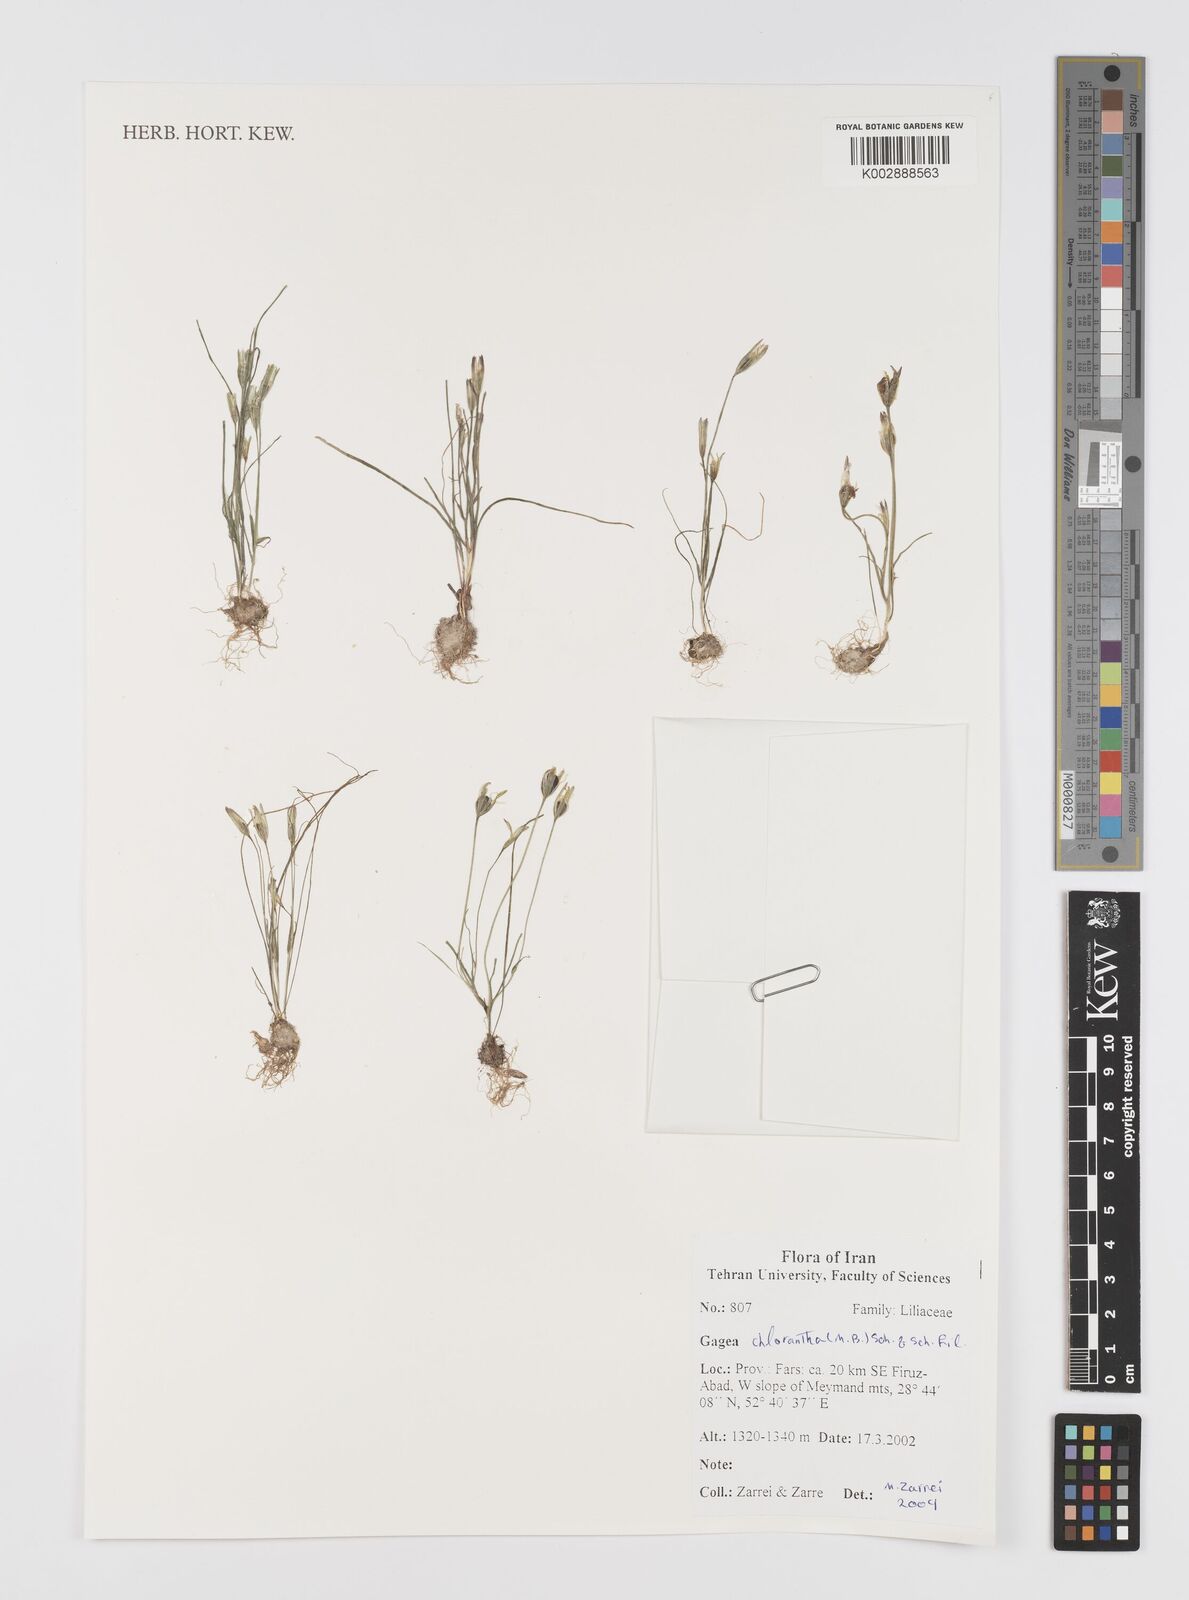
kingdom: Plantae
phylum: Tracheophyta
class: Liliopsida
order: Liliales
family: Liliaceae
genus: Gagea
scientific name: Gagea chlorantha
